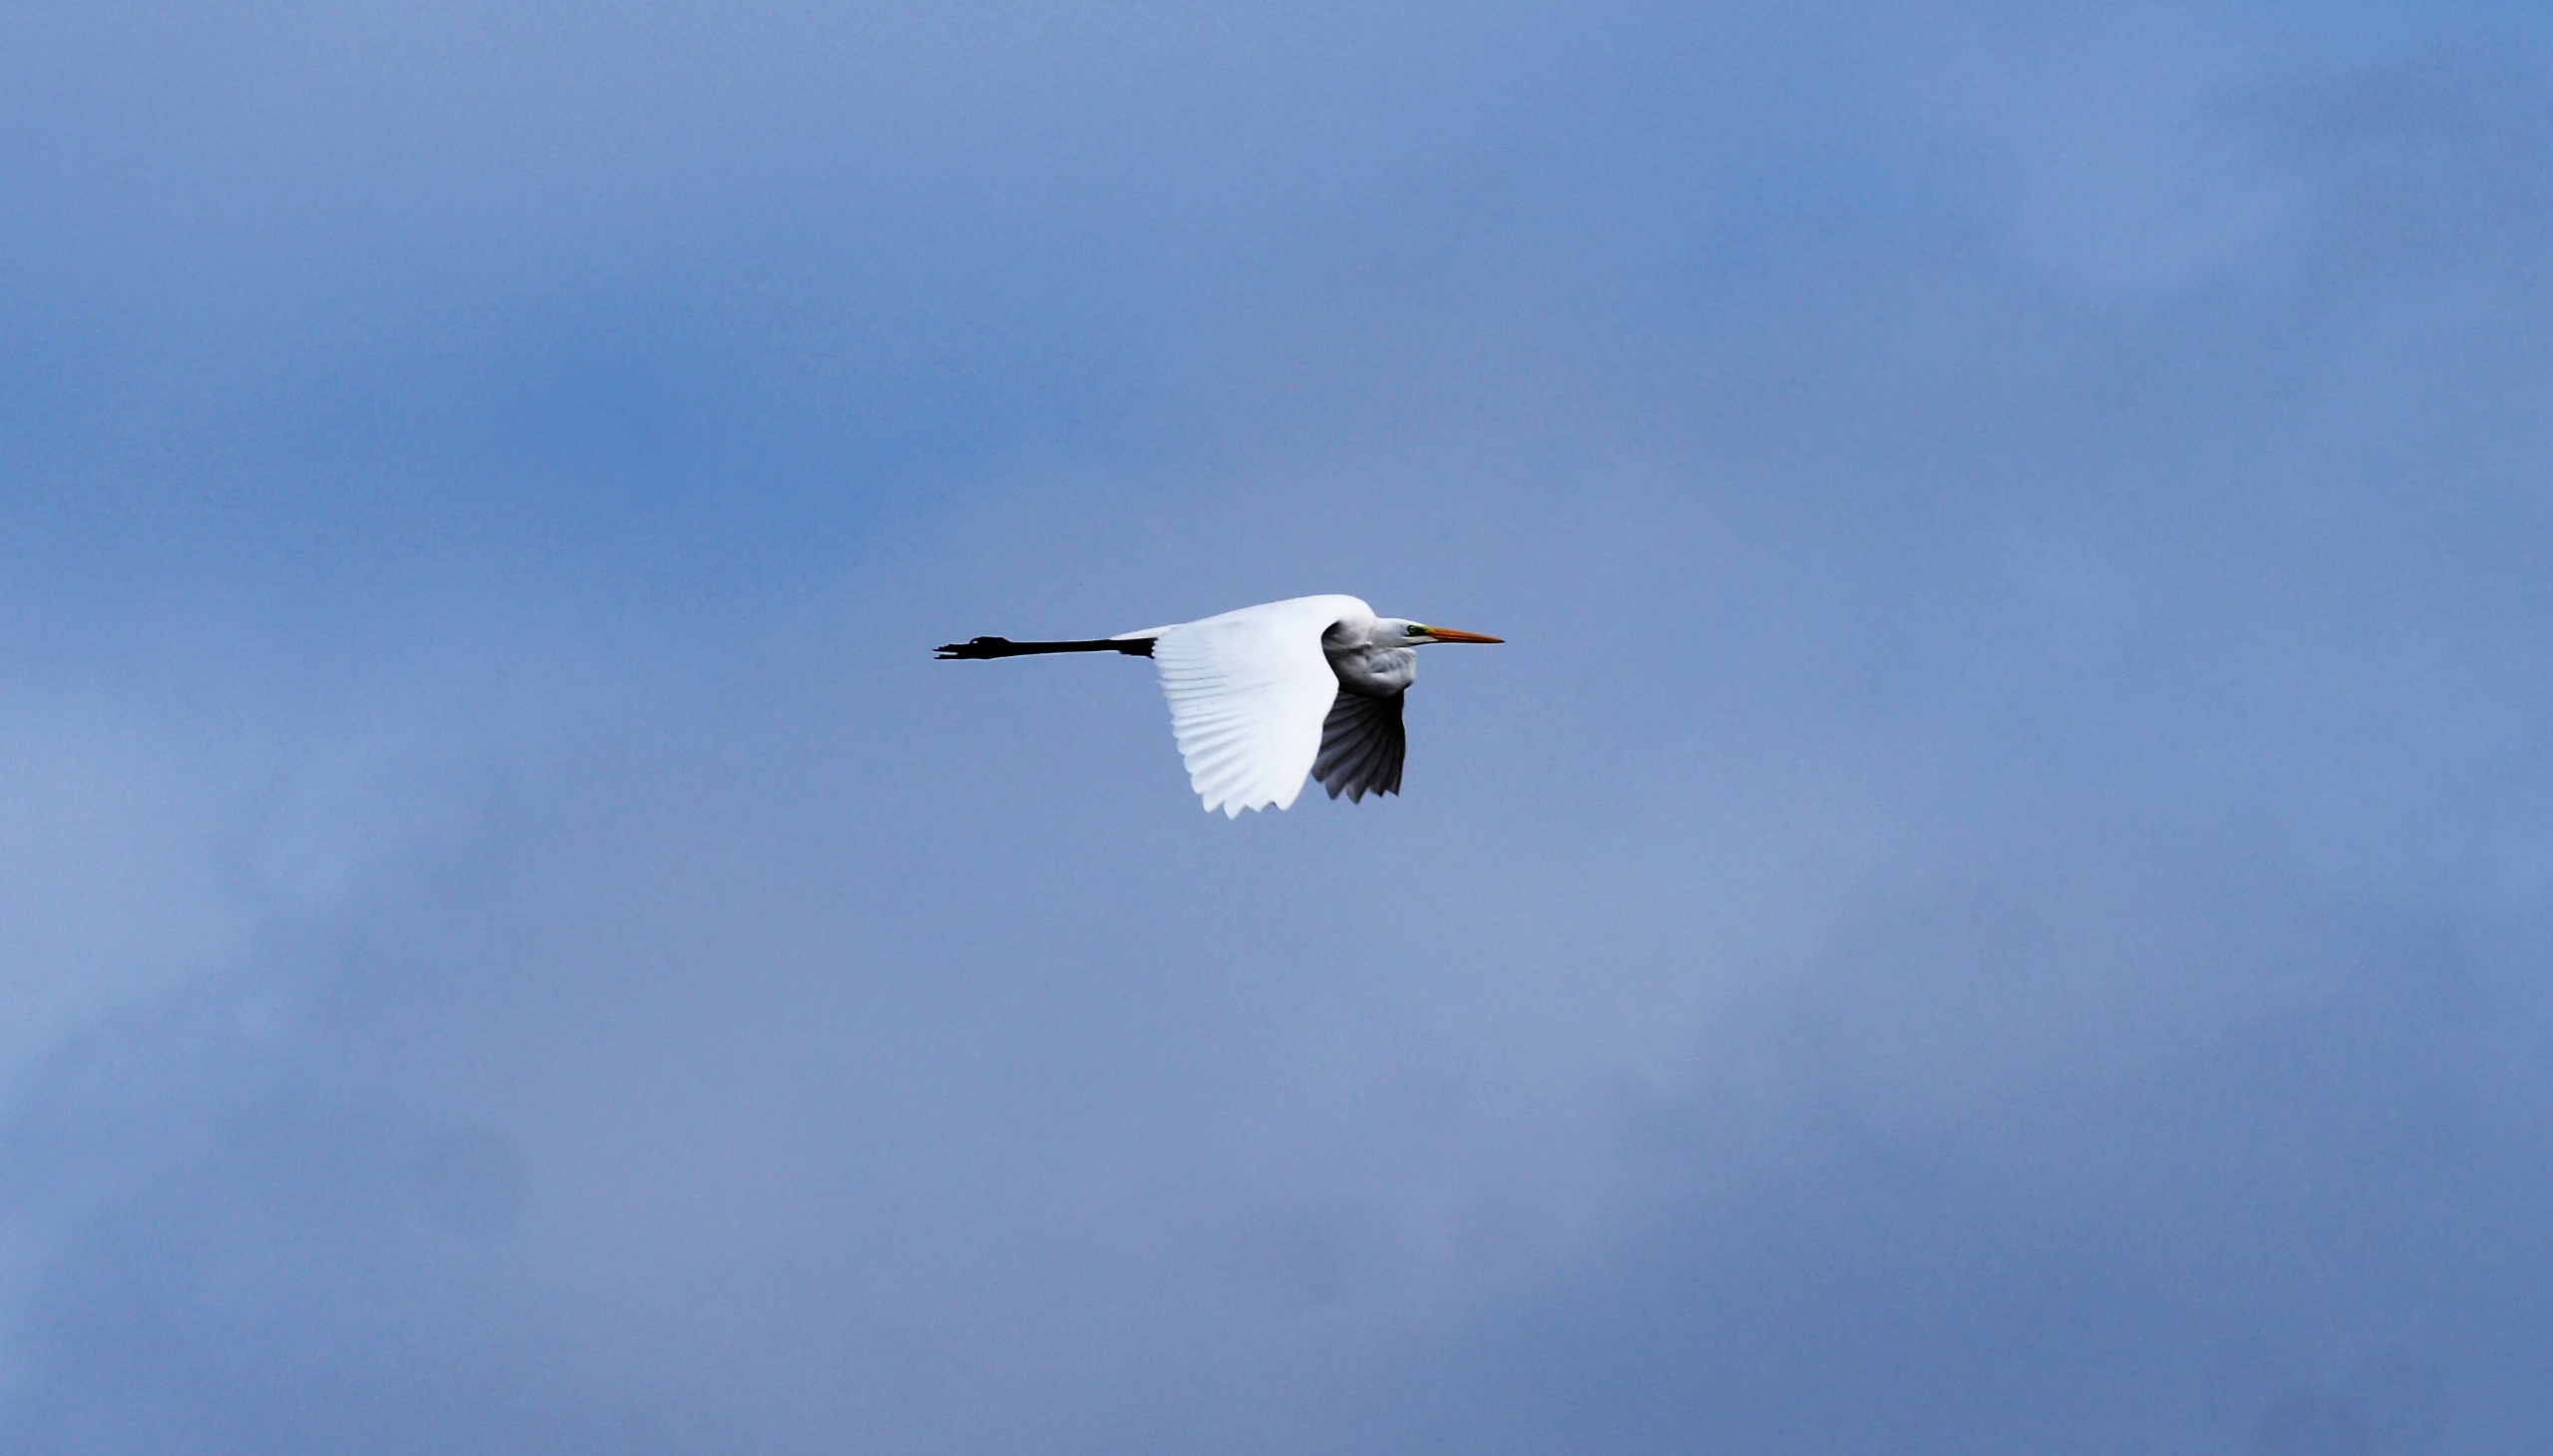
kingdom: Animalia
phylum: Chordata
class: Aves
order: Pelecaniformes
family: Ardeidae
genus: Ardea
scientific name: Ardea alba
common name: Sølvhejre
